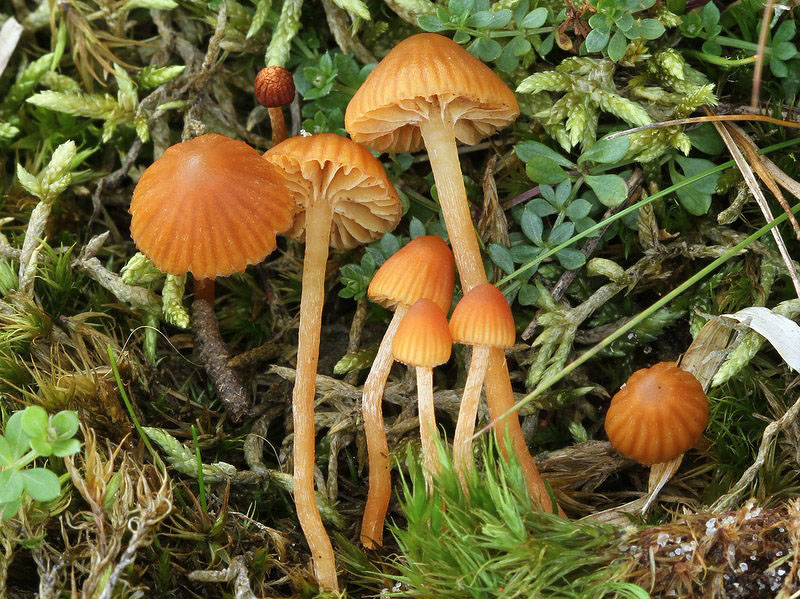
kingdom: Fungi
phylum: Basidiomycota
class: Agaricomycetes
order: Agaricales
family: Hymenogastraceae
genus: Galerina
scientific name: Galerina calyptrata
